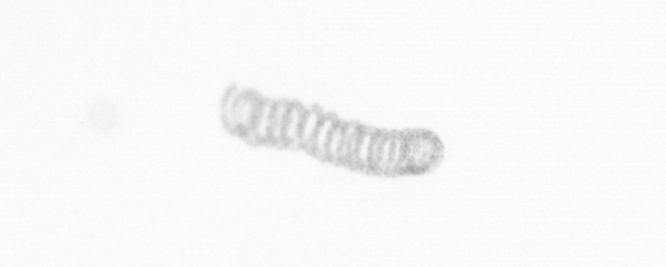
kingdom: Chromista
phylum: Ochrophyta
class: Bacillariophyceae
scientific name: Bacillariophyceae
